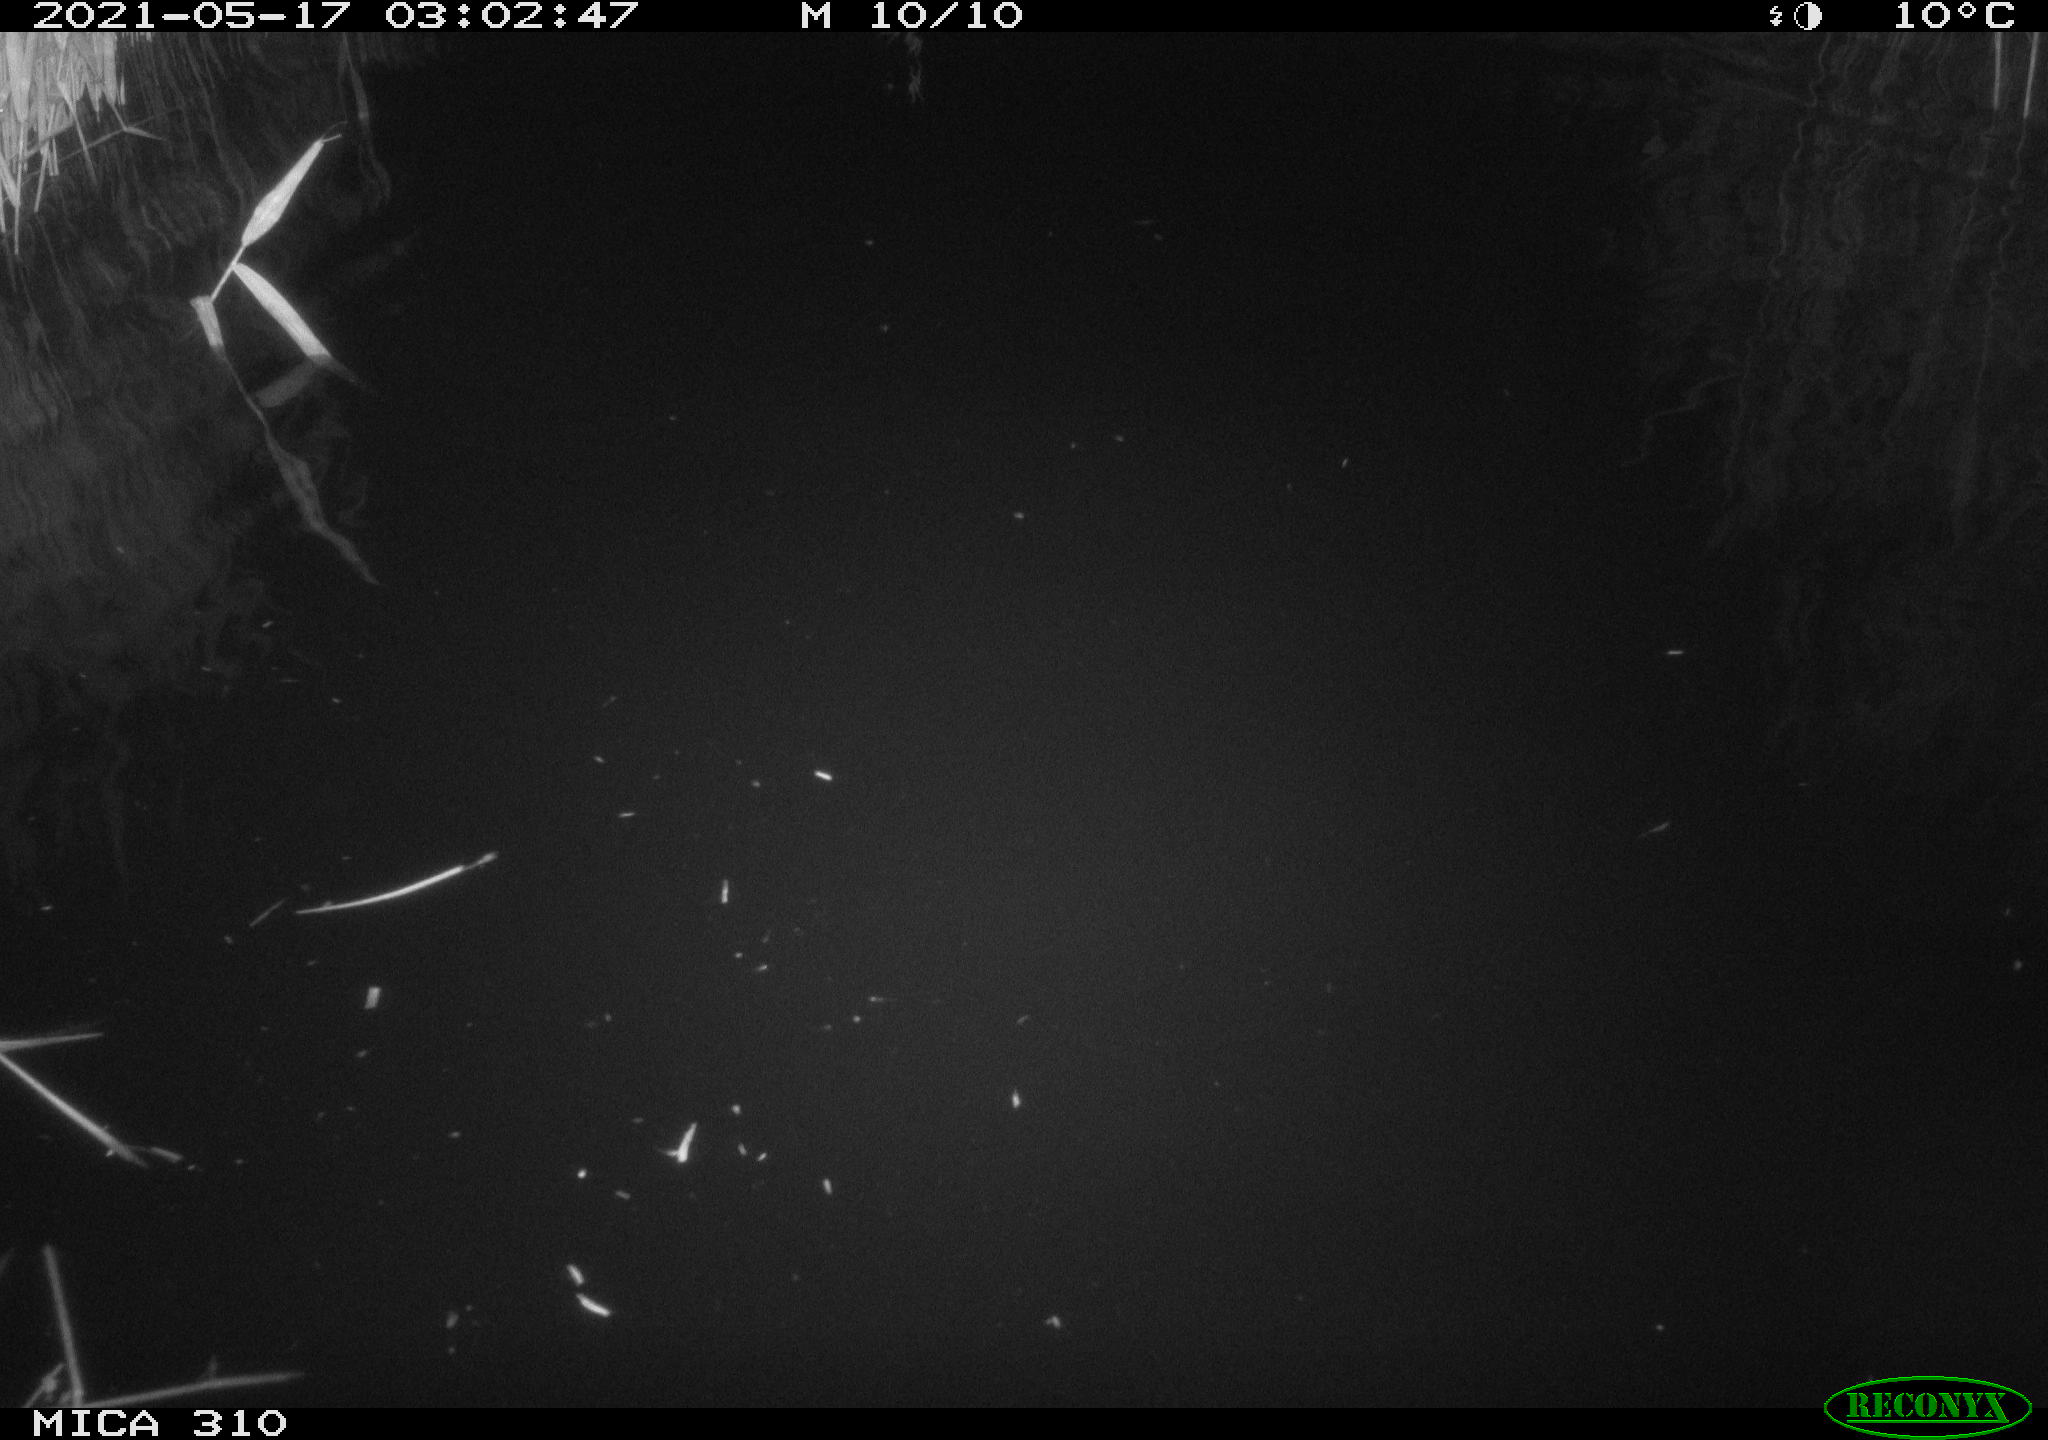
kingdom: Animalia
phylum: Chordata
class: Aves
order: Anseriformes
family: Anatidae
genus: Anas
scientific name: Anas platyrhynchos
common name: Mallard
